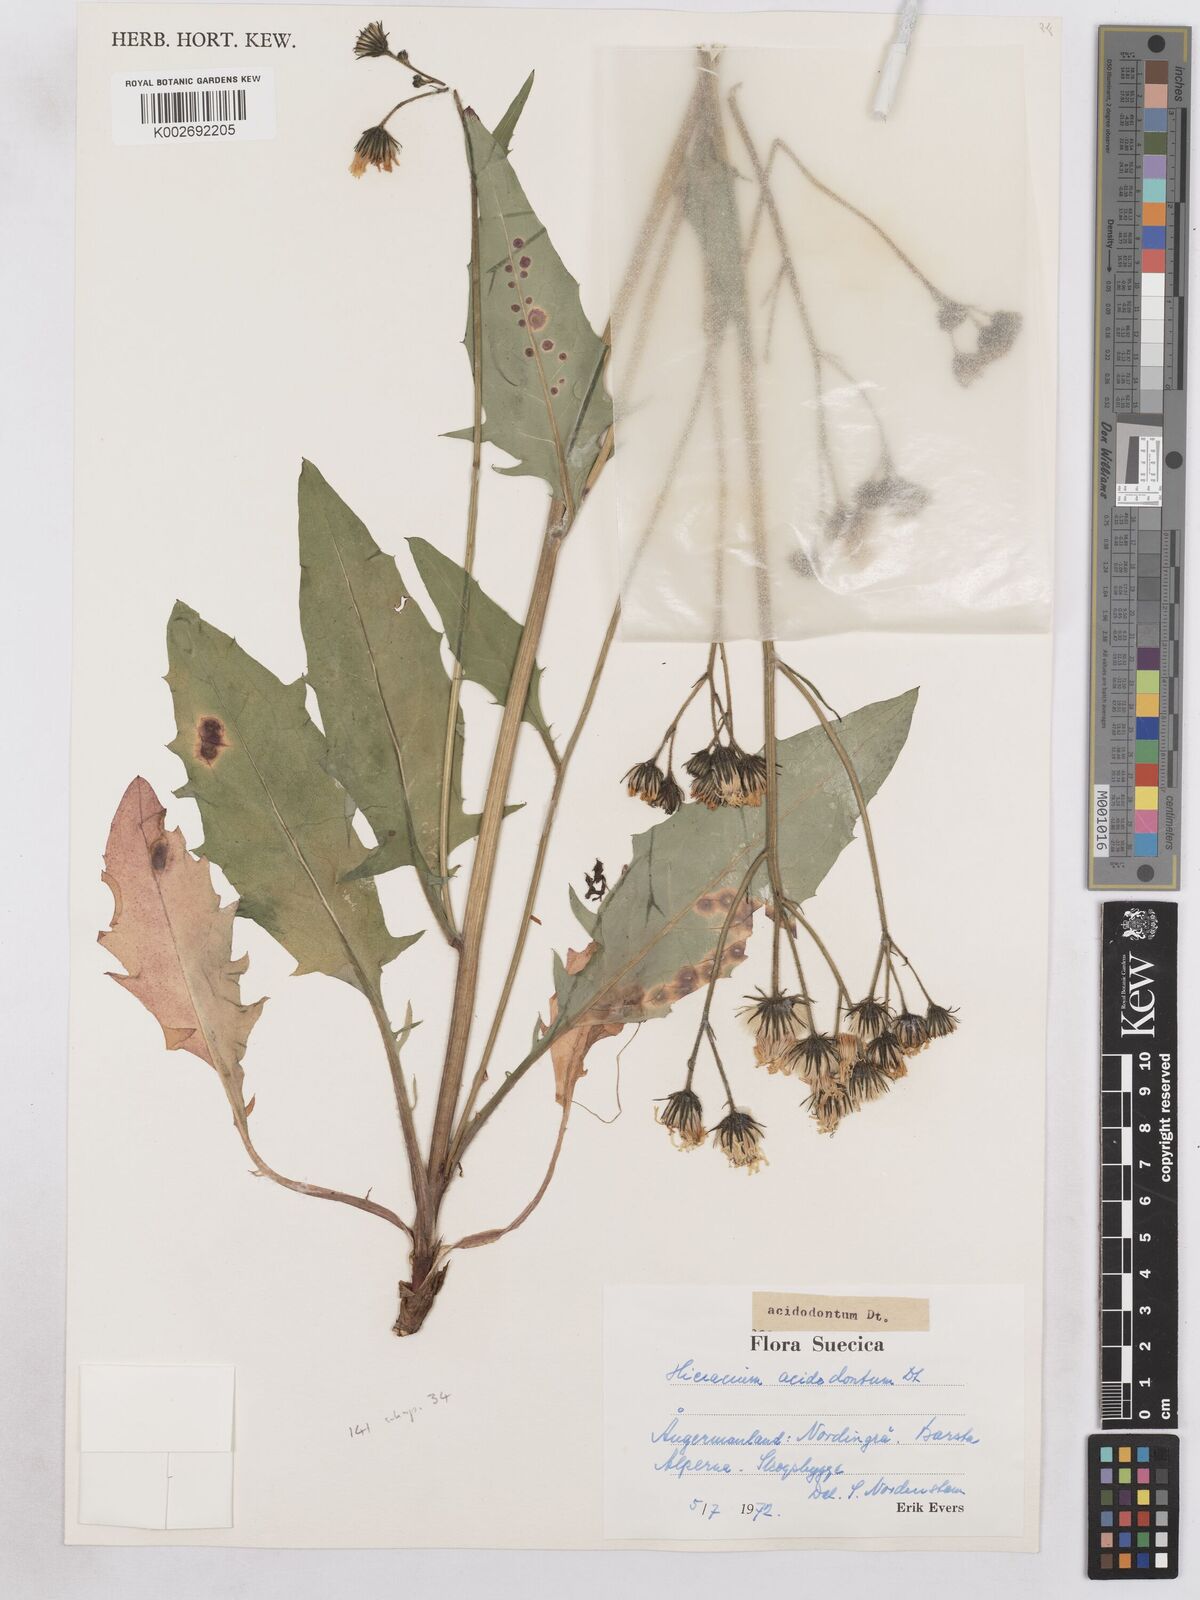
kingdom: Plantae
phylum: Tracheophyta
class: Magnoliopsida
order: Asterales
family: Asteraceae
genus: Hieracium
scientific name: Hieracium diaphanoides
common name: Fine-bracted hawkweed
